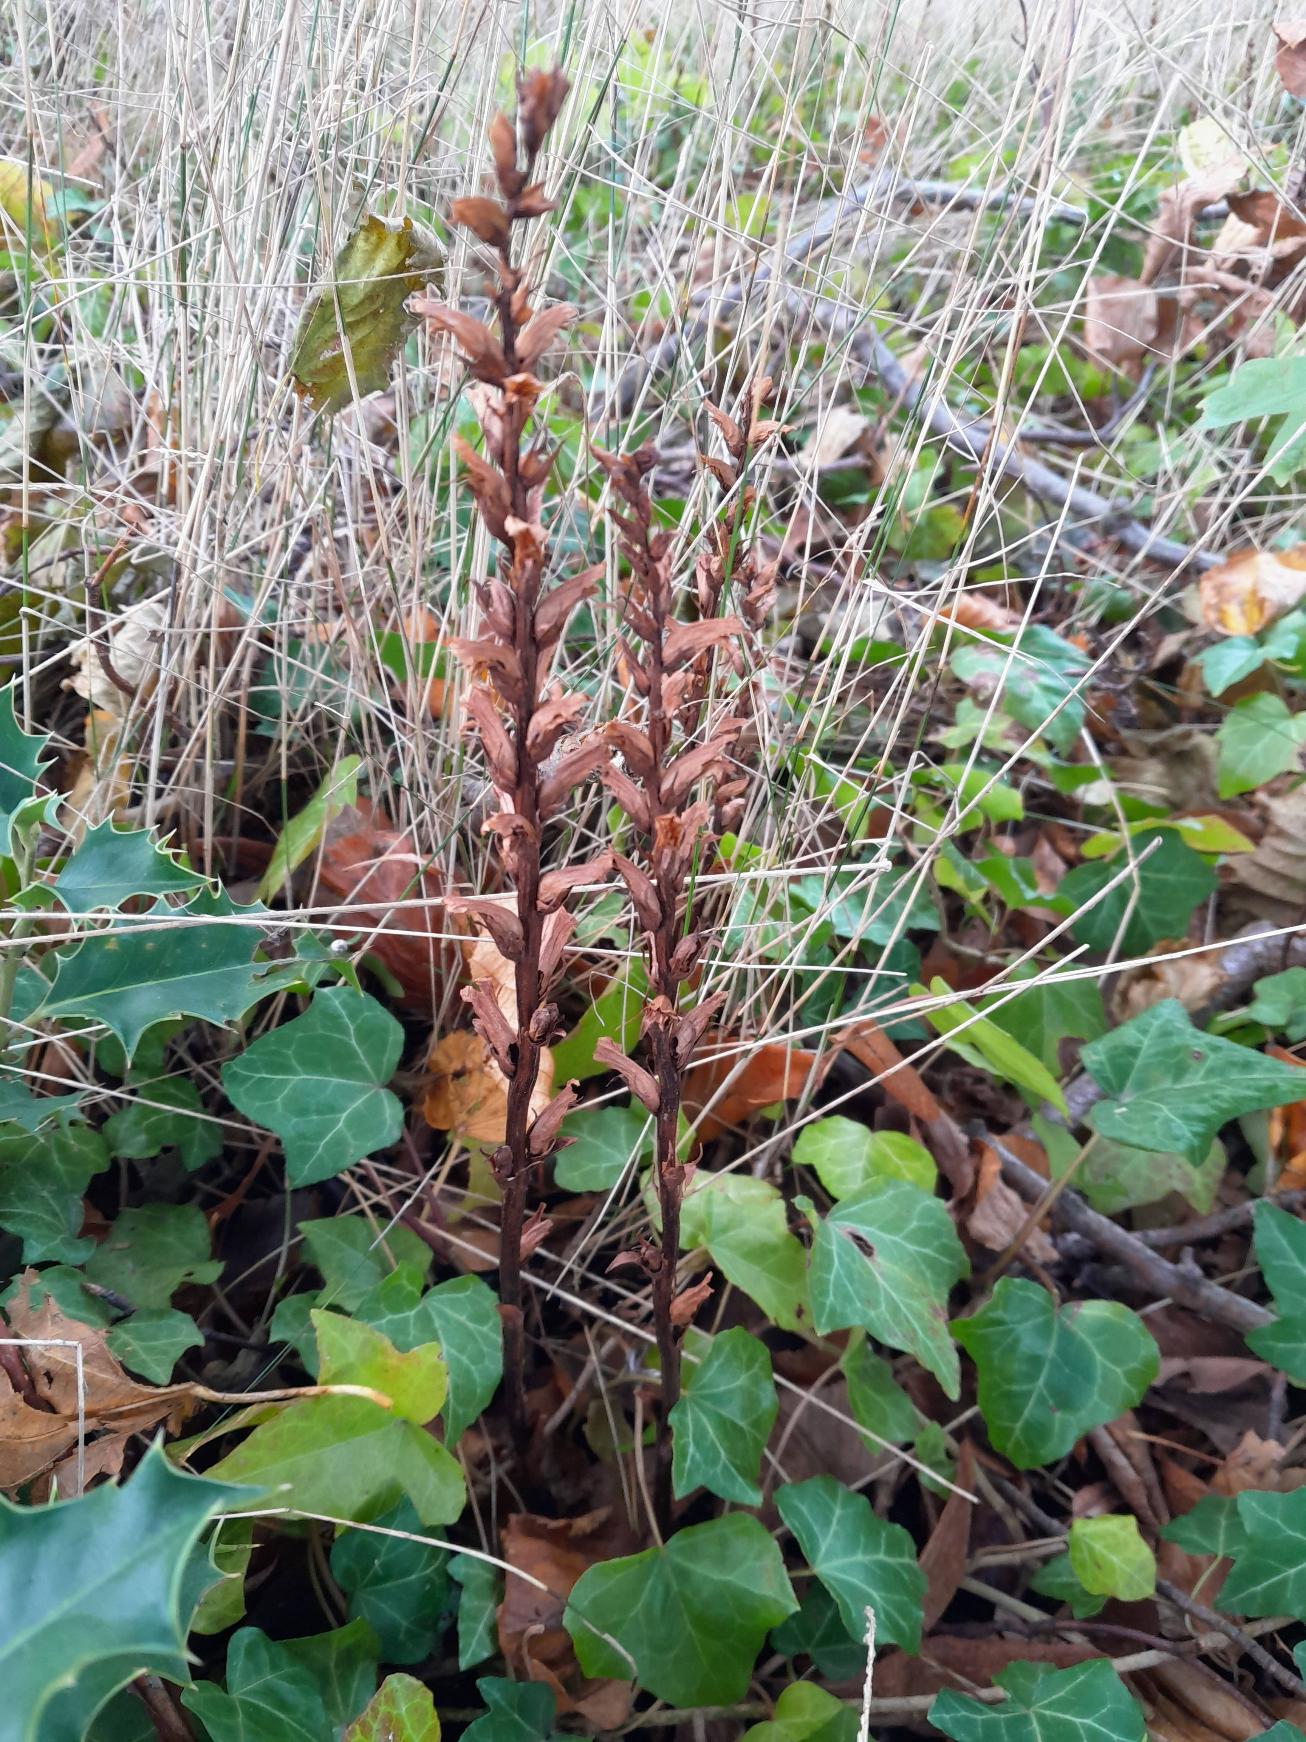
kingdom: Plantae
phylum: Tracheophyta
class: Magnoliopsida
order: Lamiales
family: Orobanchaceae
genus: Orobanche
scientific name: Orobanche hederae
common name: Vedbend-gyvelkvæler
